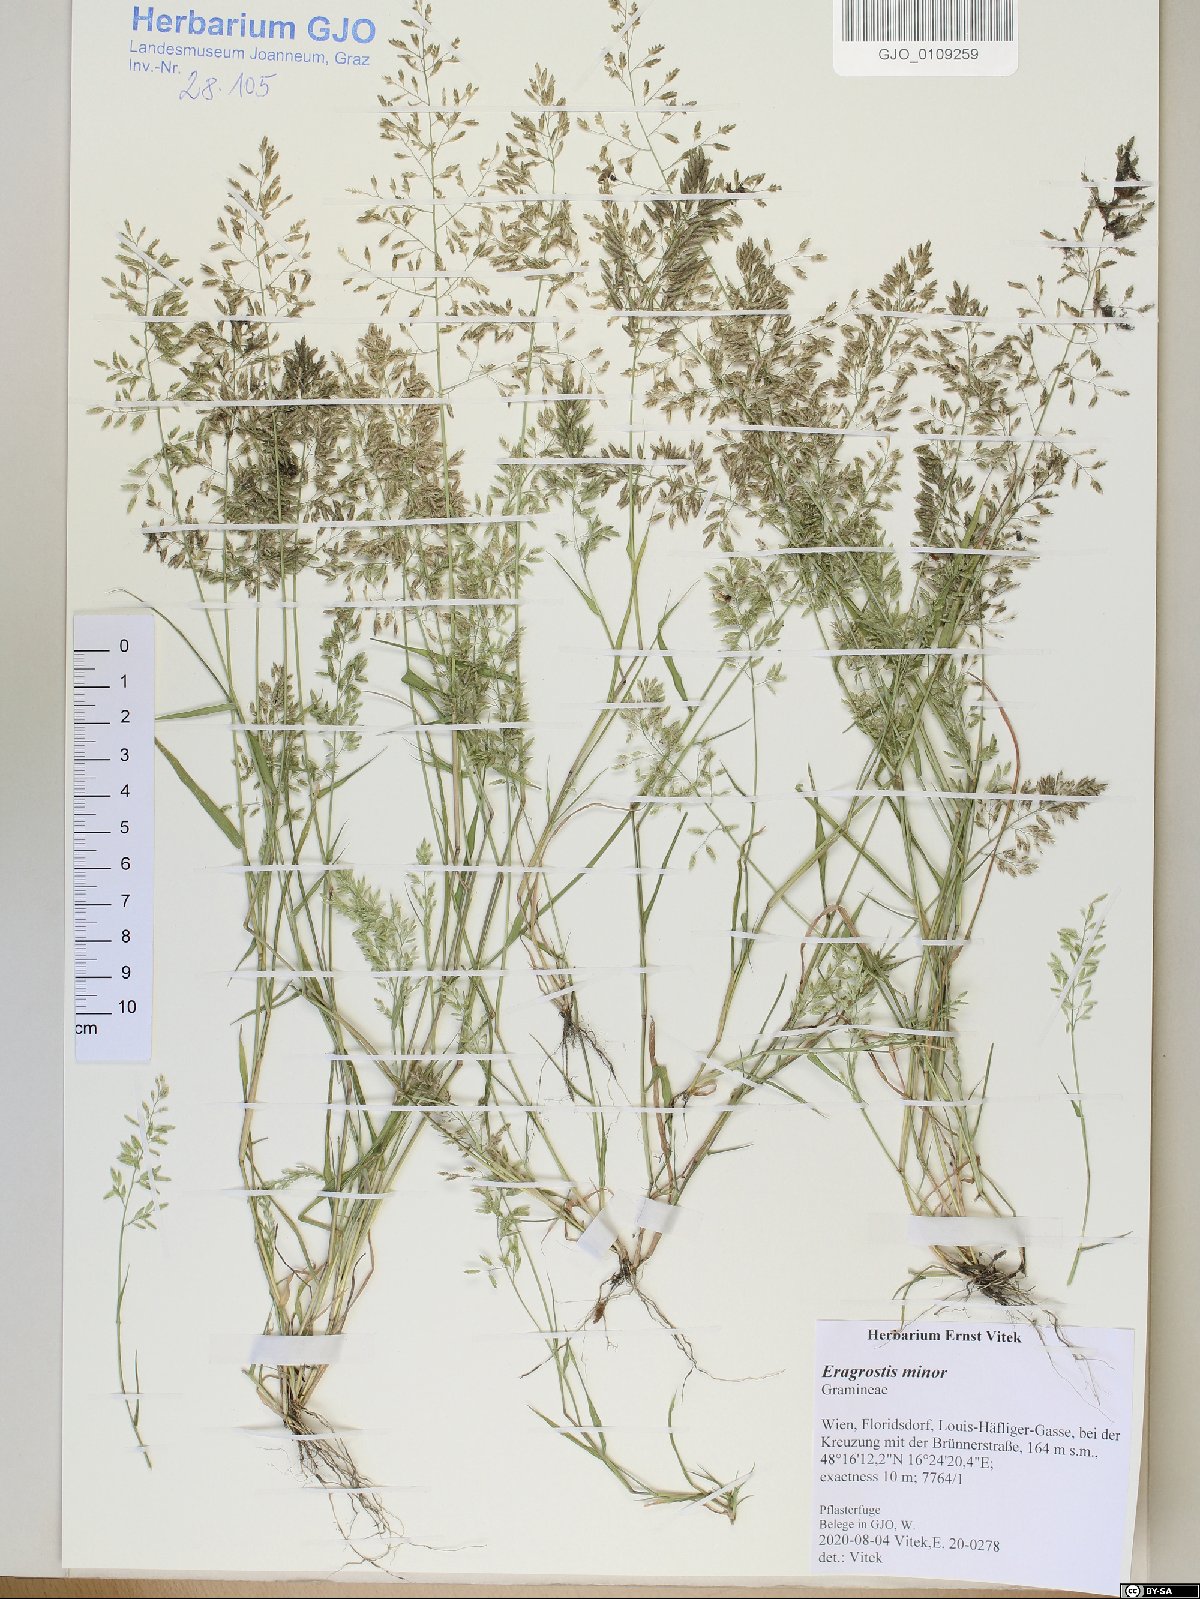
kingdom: Plantae
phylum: Tracheophyta
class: Liliopsida
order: Poales
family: Poaceae
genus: Eragrostis
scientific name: Eragrostis minor
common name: Small love-grass
